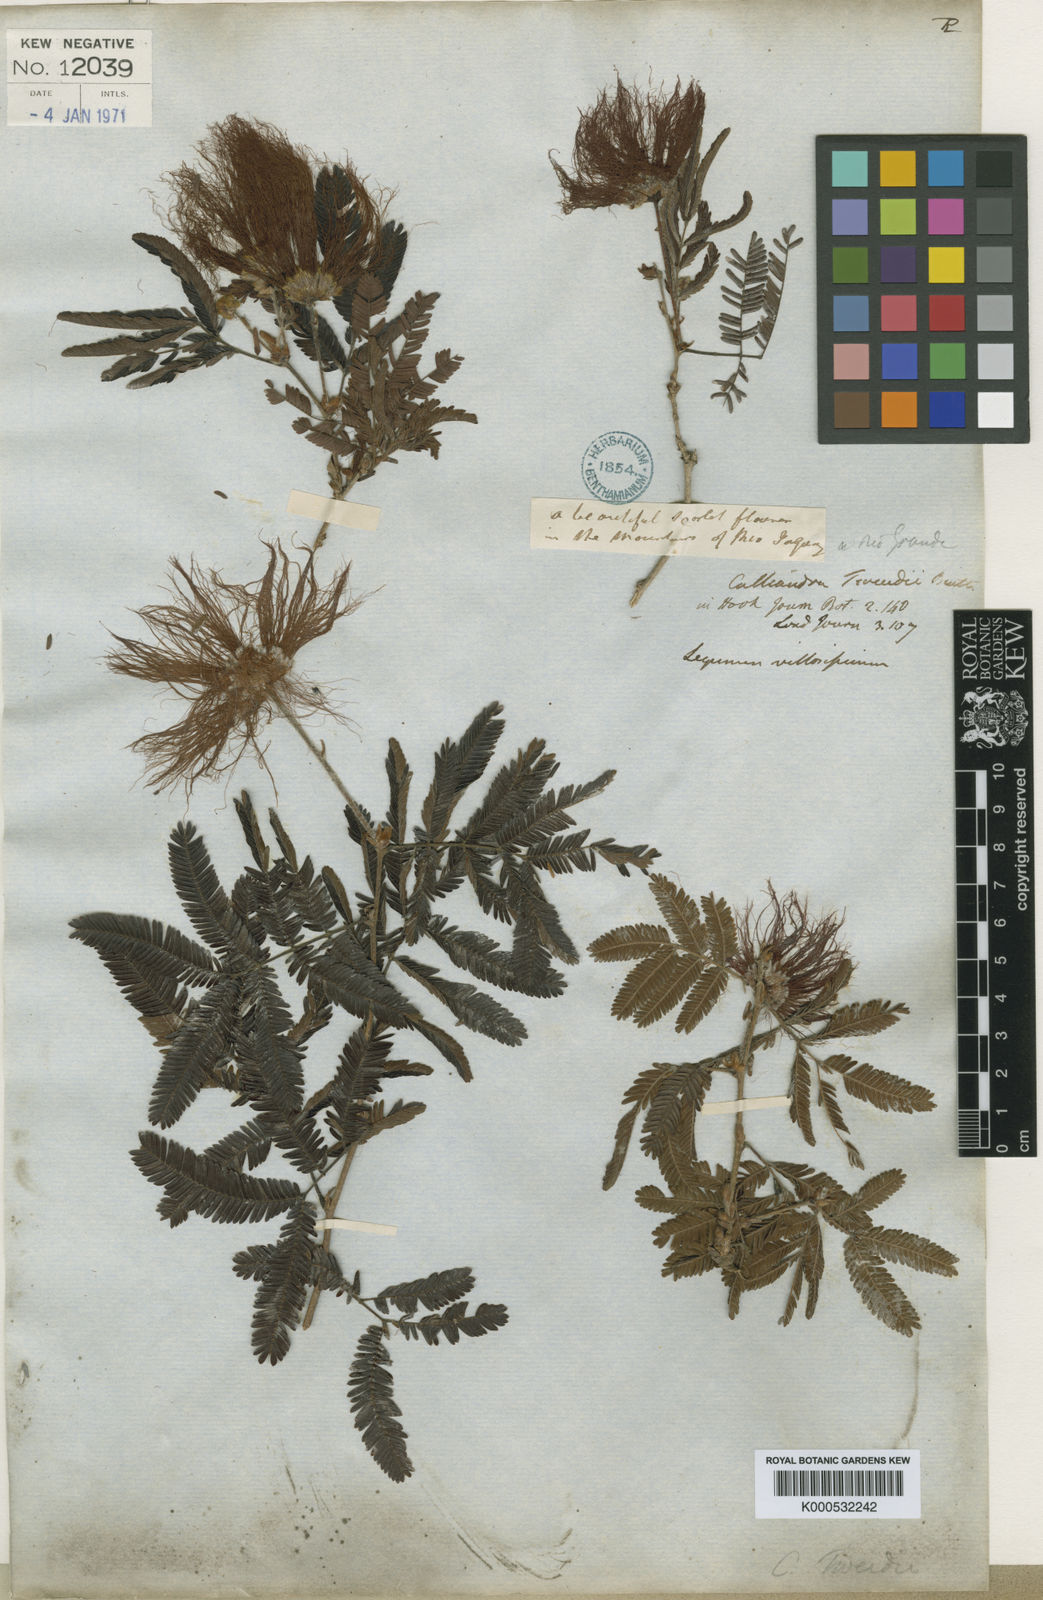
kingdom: Plantae
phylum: Tracheophyta
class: Magnoliopsida
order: Fabales
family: Fabaceae
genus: Calliandra
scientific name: Calliandra tweediei
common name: Mexican flamebush
